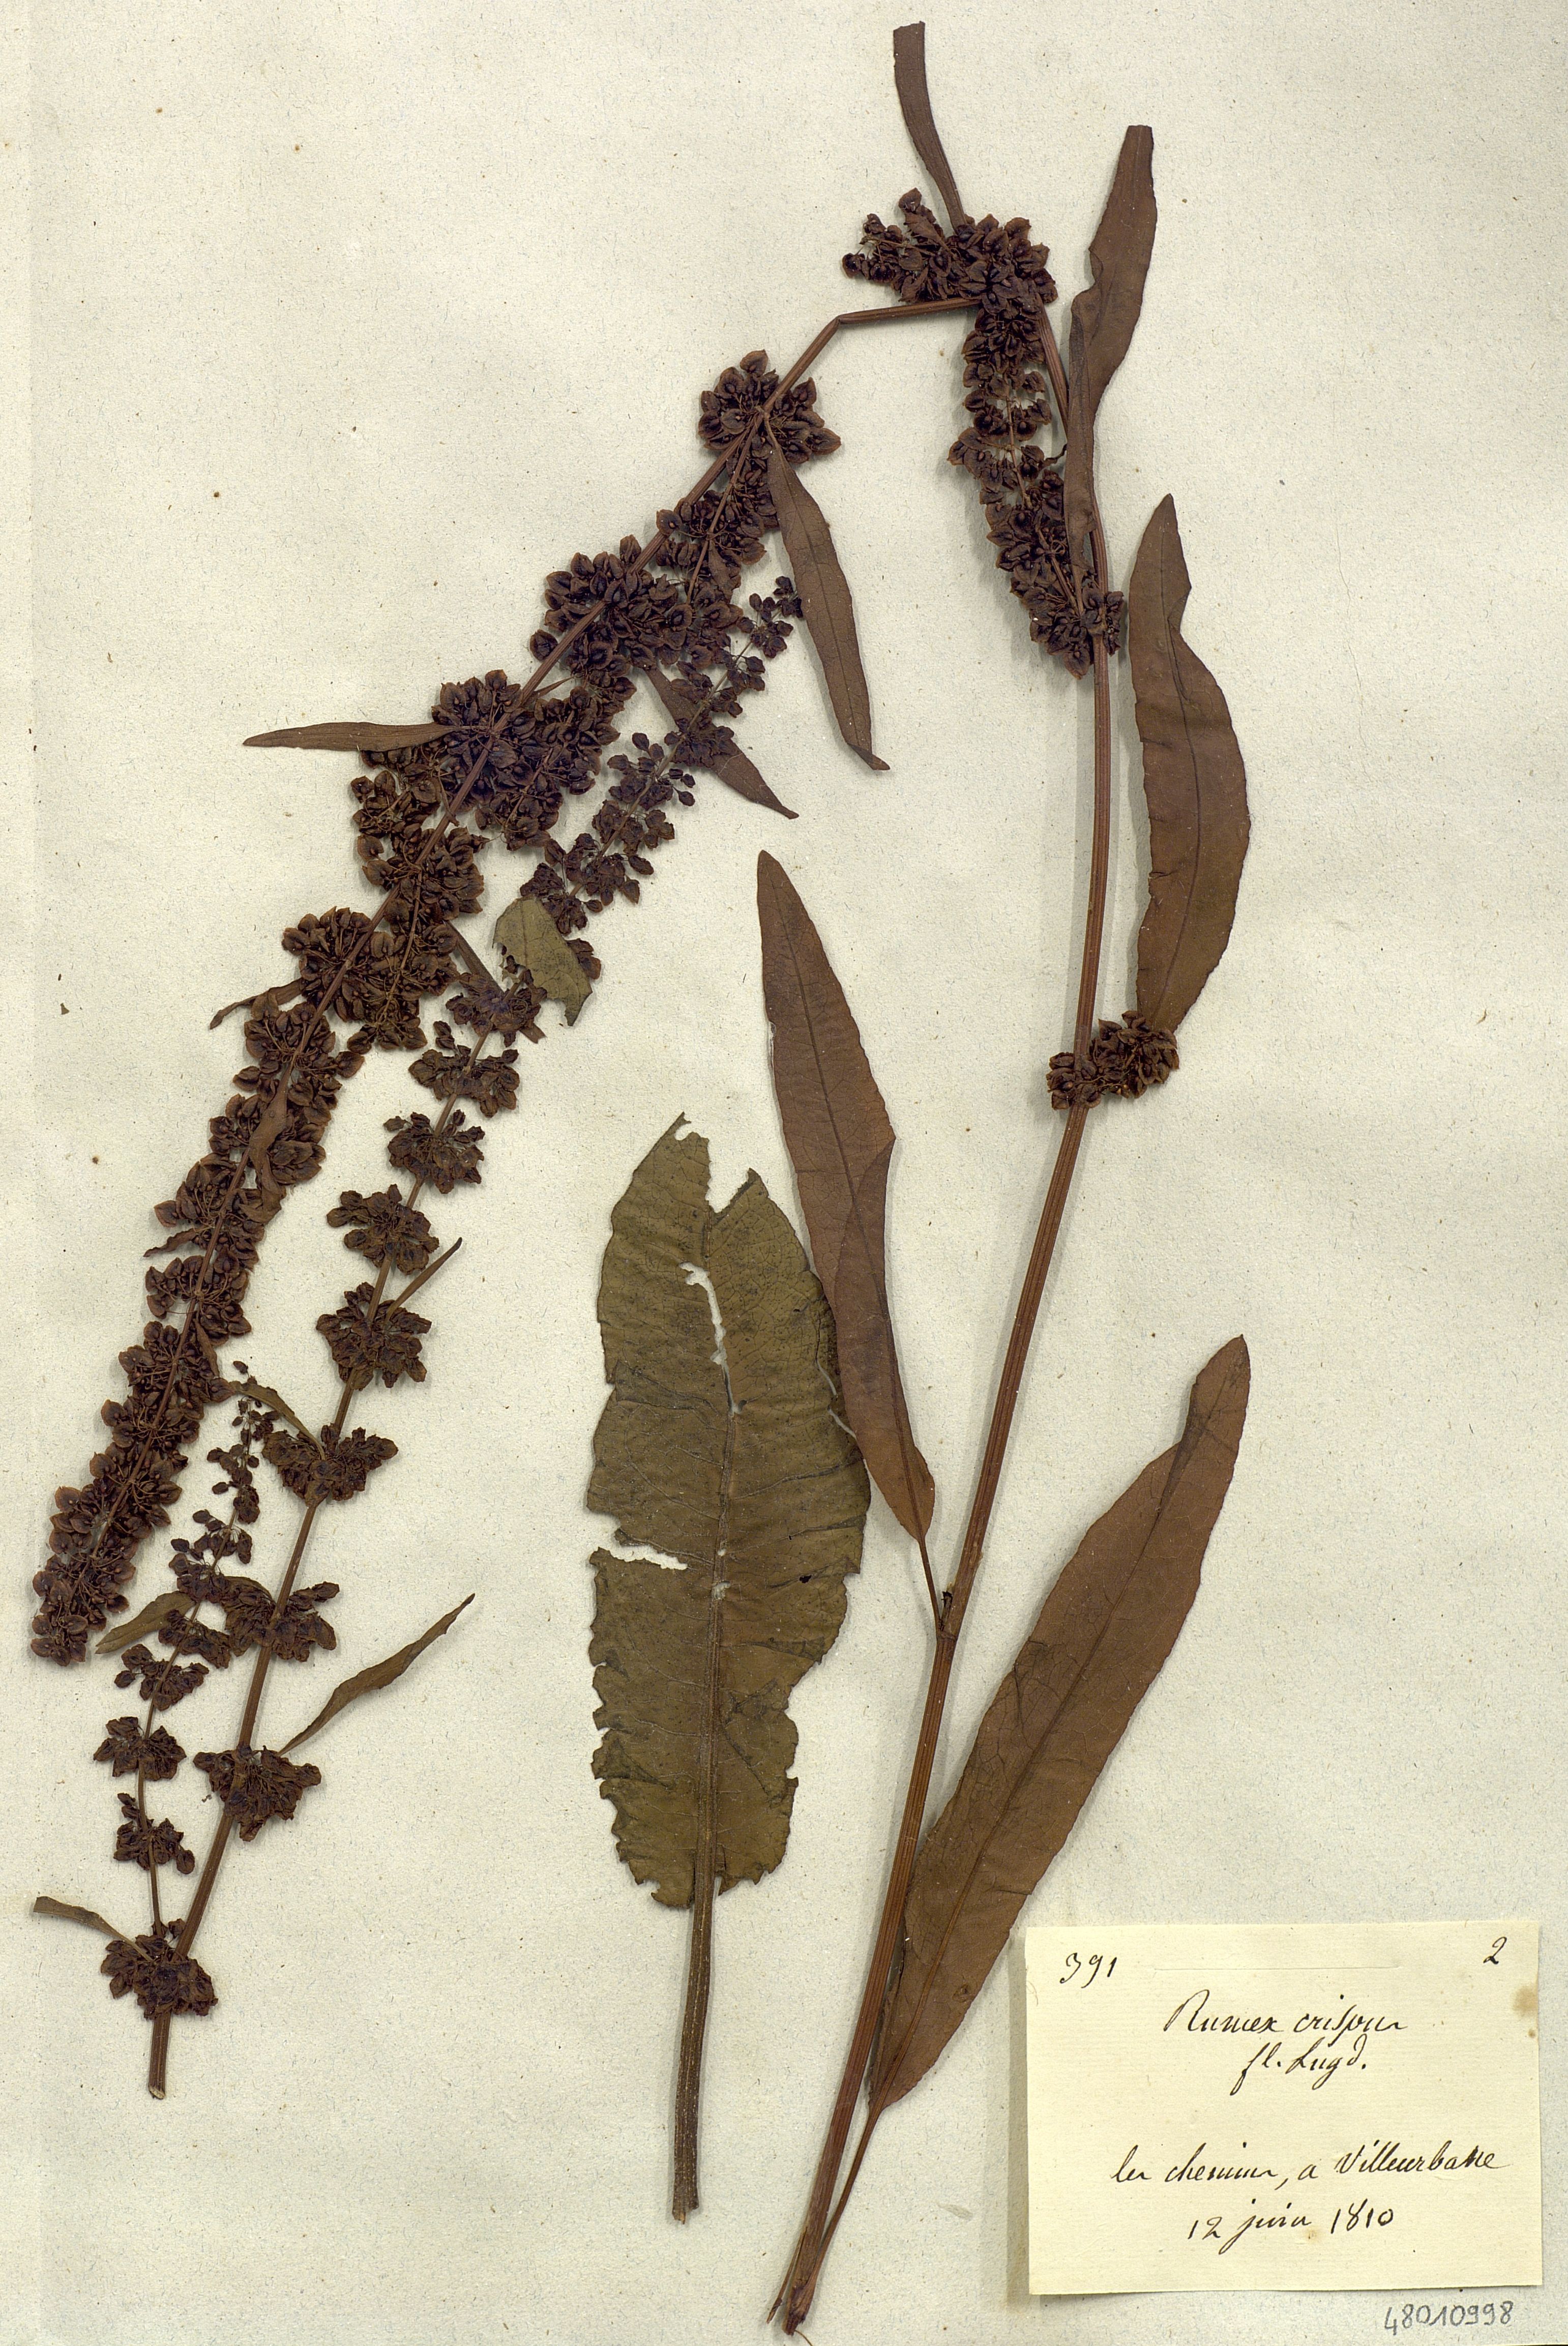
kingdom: Plantae
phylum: Tracheophyta
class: Magnoliopsida
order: Caryophyllales
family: Polygonaceae
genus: Rumex
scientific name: Rumex crispus
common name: Curled dock
